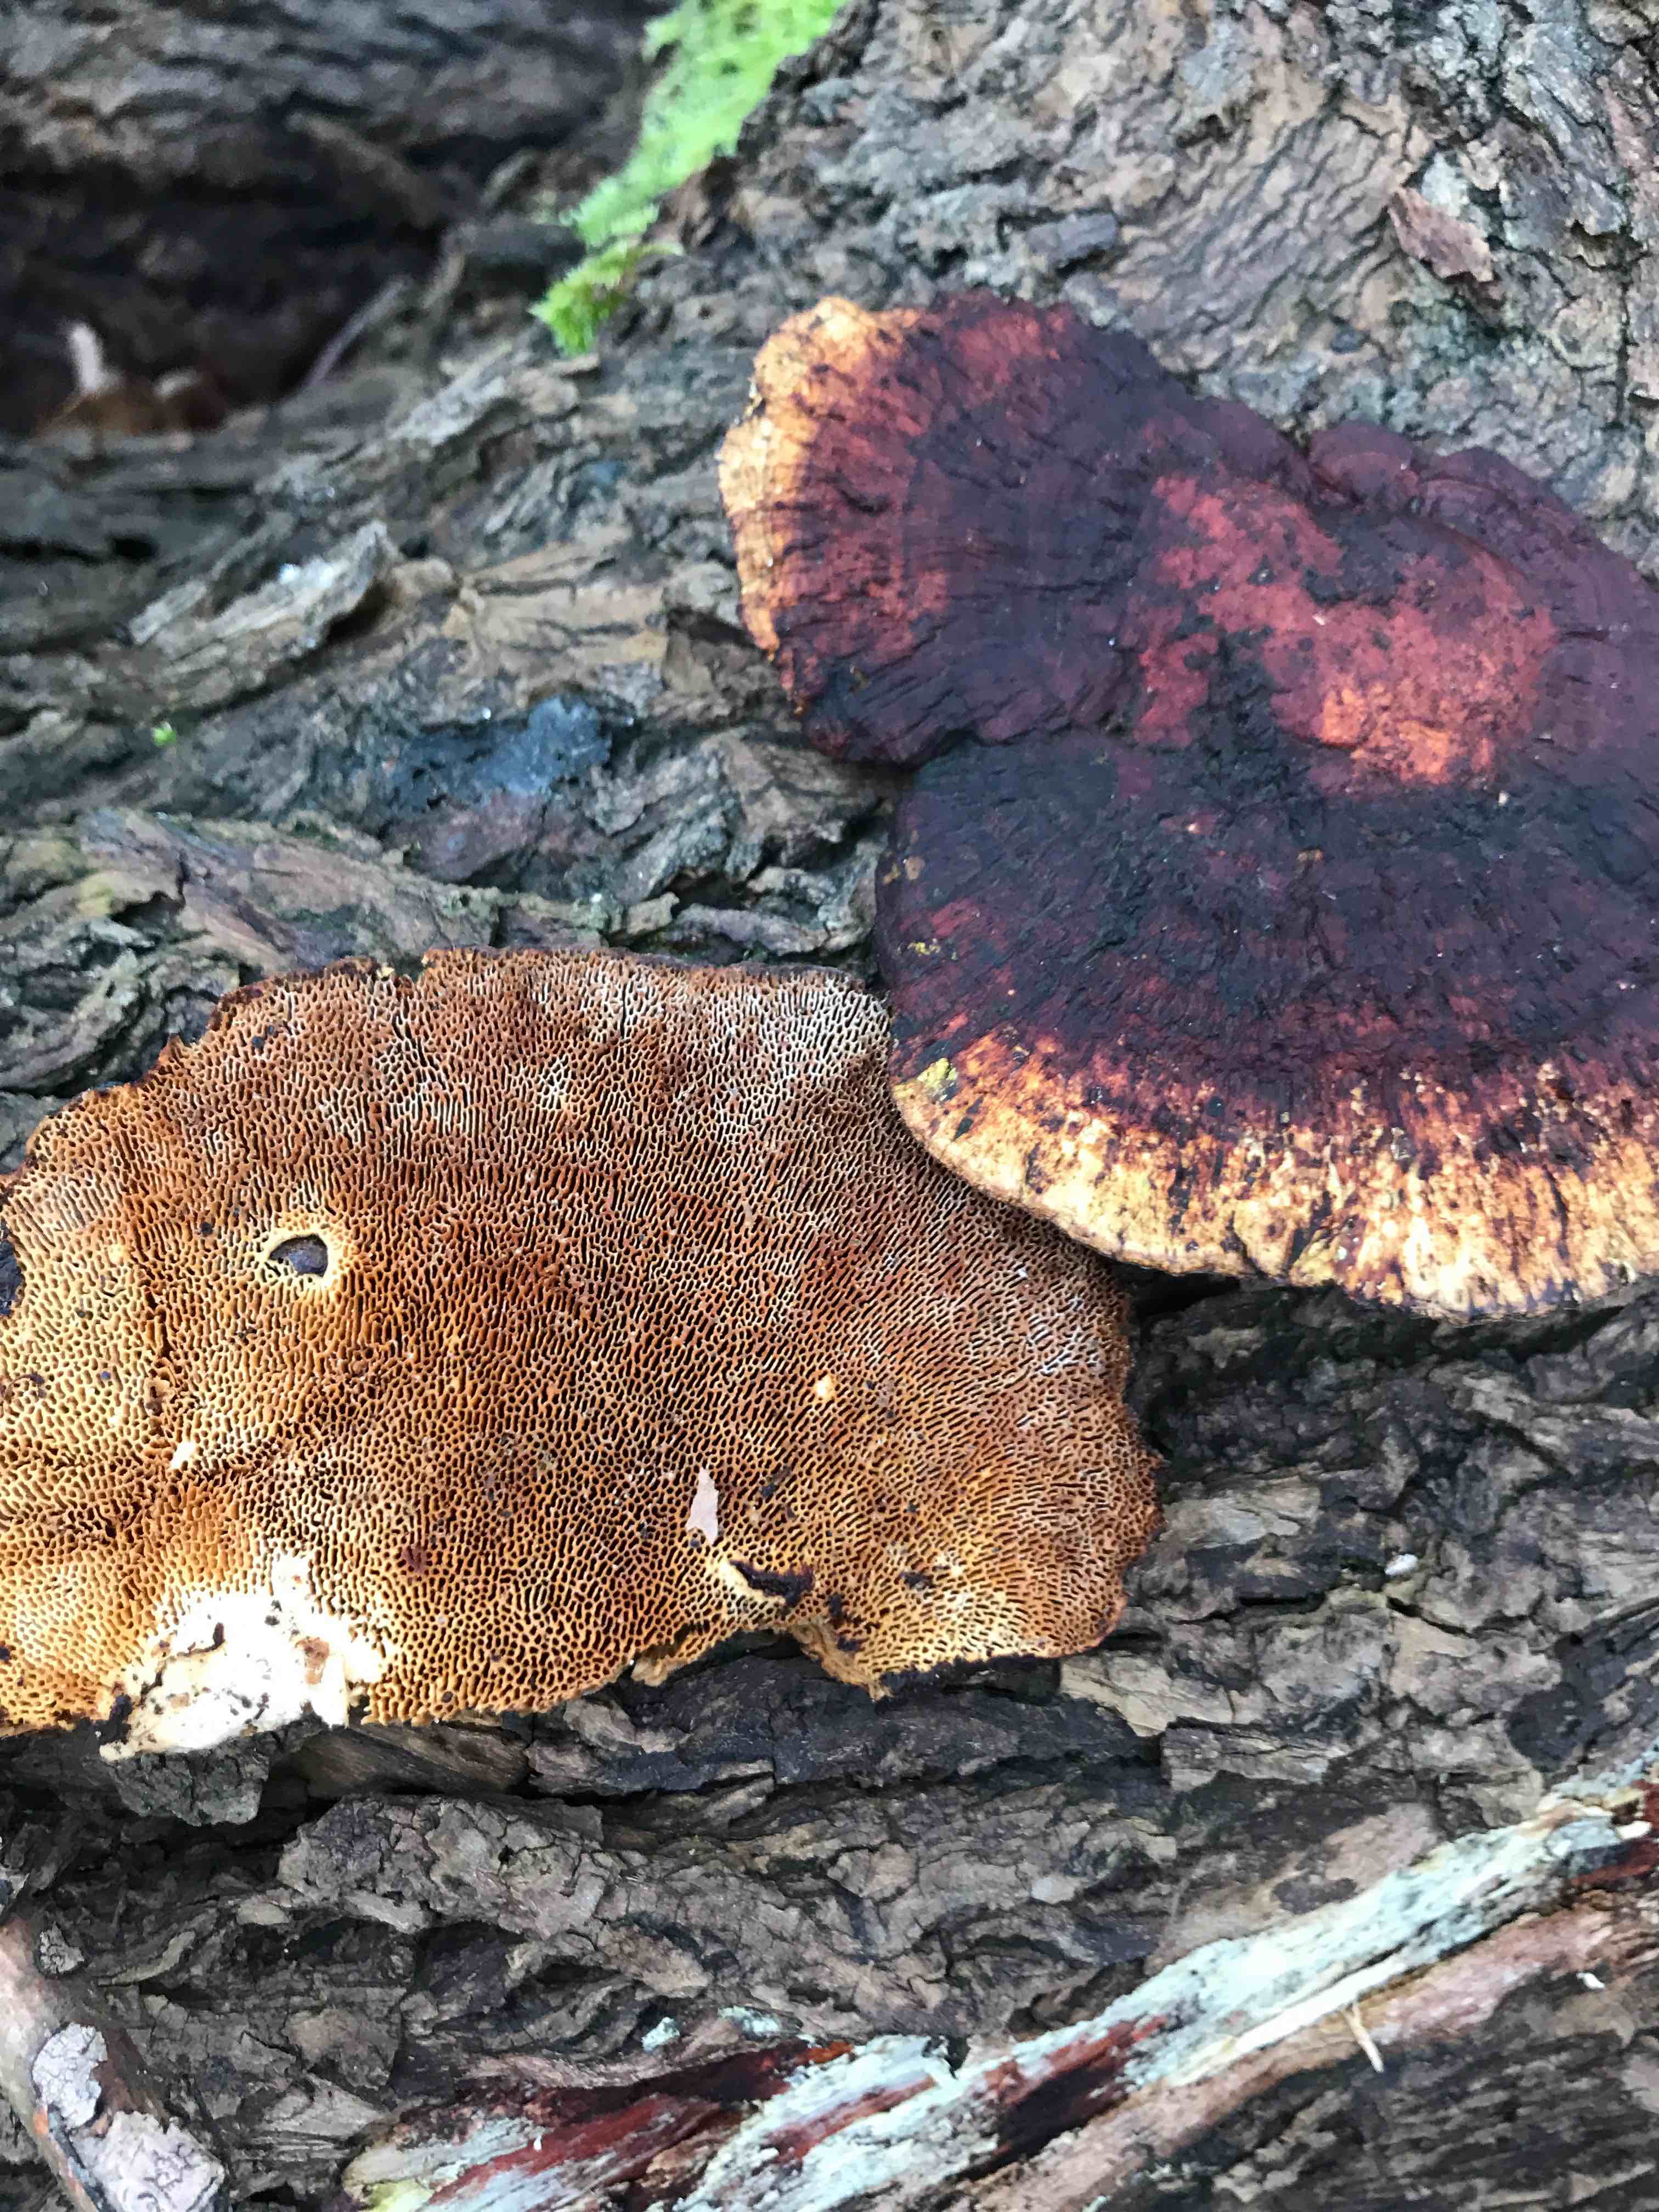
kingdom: Fungi
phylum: Basidiomycota
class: Agaricomycetes
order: Polyporales
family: Polyporaceae
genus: Daedaleopsis
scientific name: Daedaleopsis confragosa
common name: rødmende læderporesvamp
